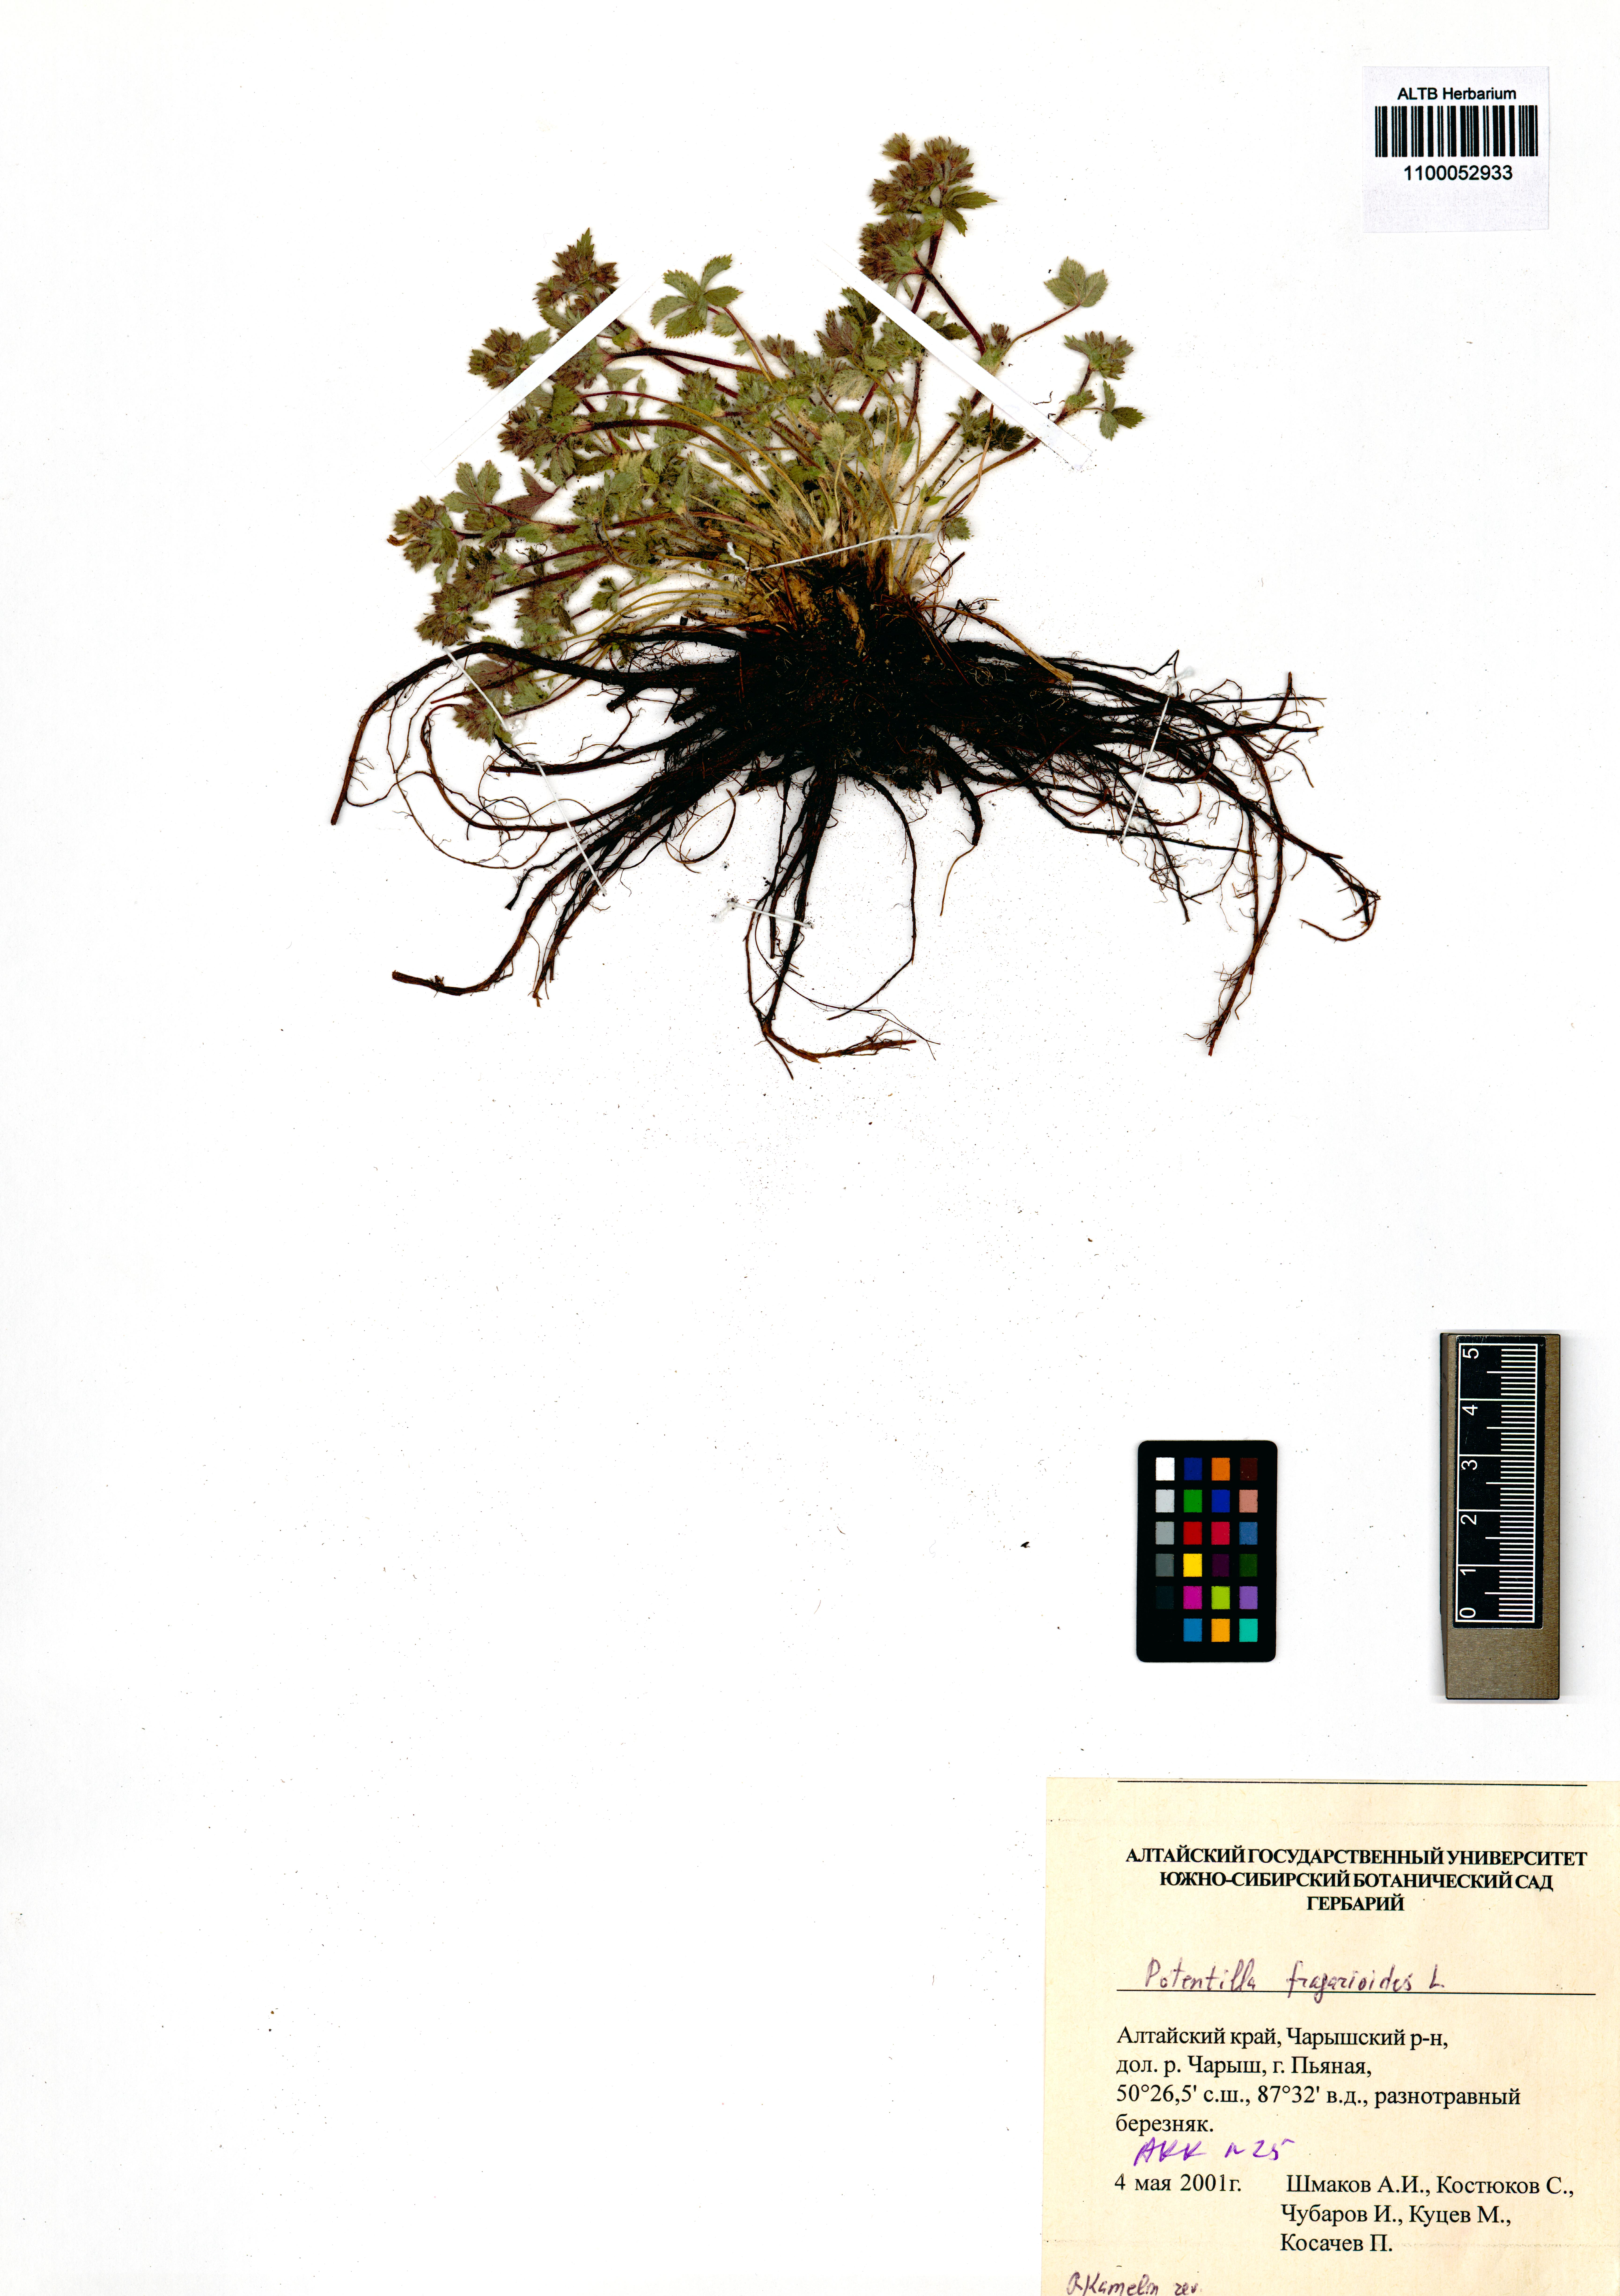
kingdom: Plantae
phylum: Tracheophyta
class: Magnoliopsida
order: Rosales
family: Rosaceae
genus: Potentilla
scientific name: Potentilla fragarioides
